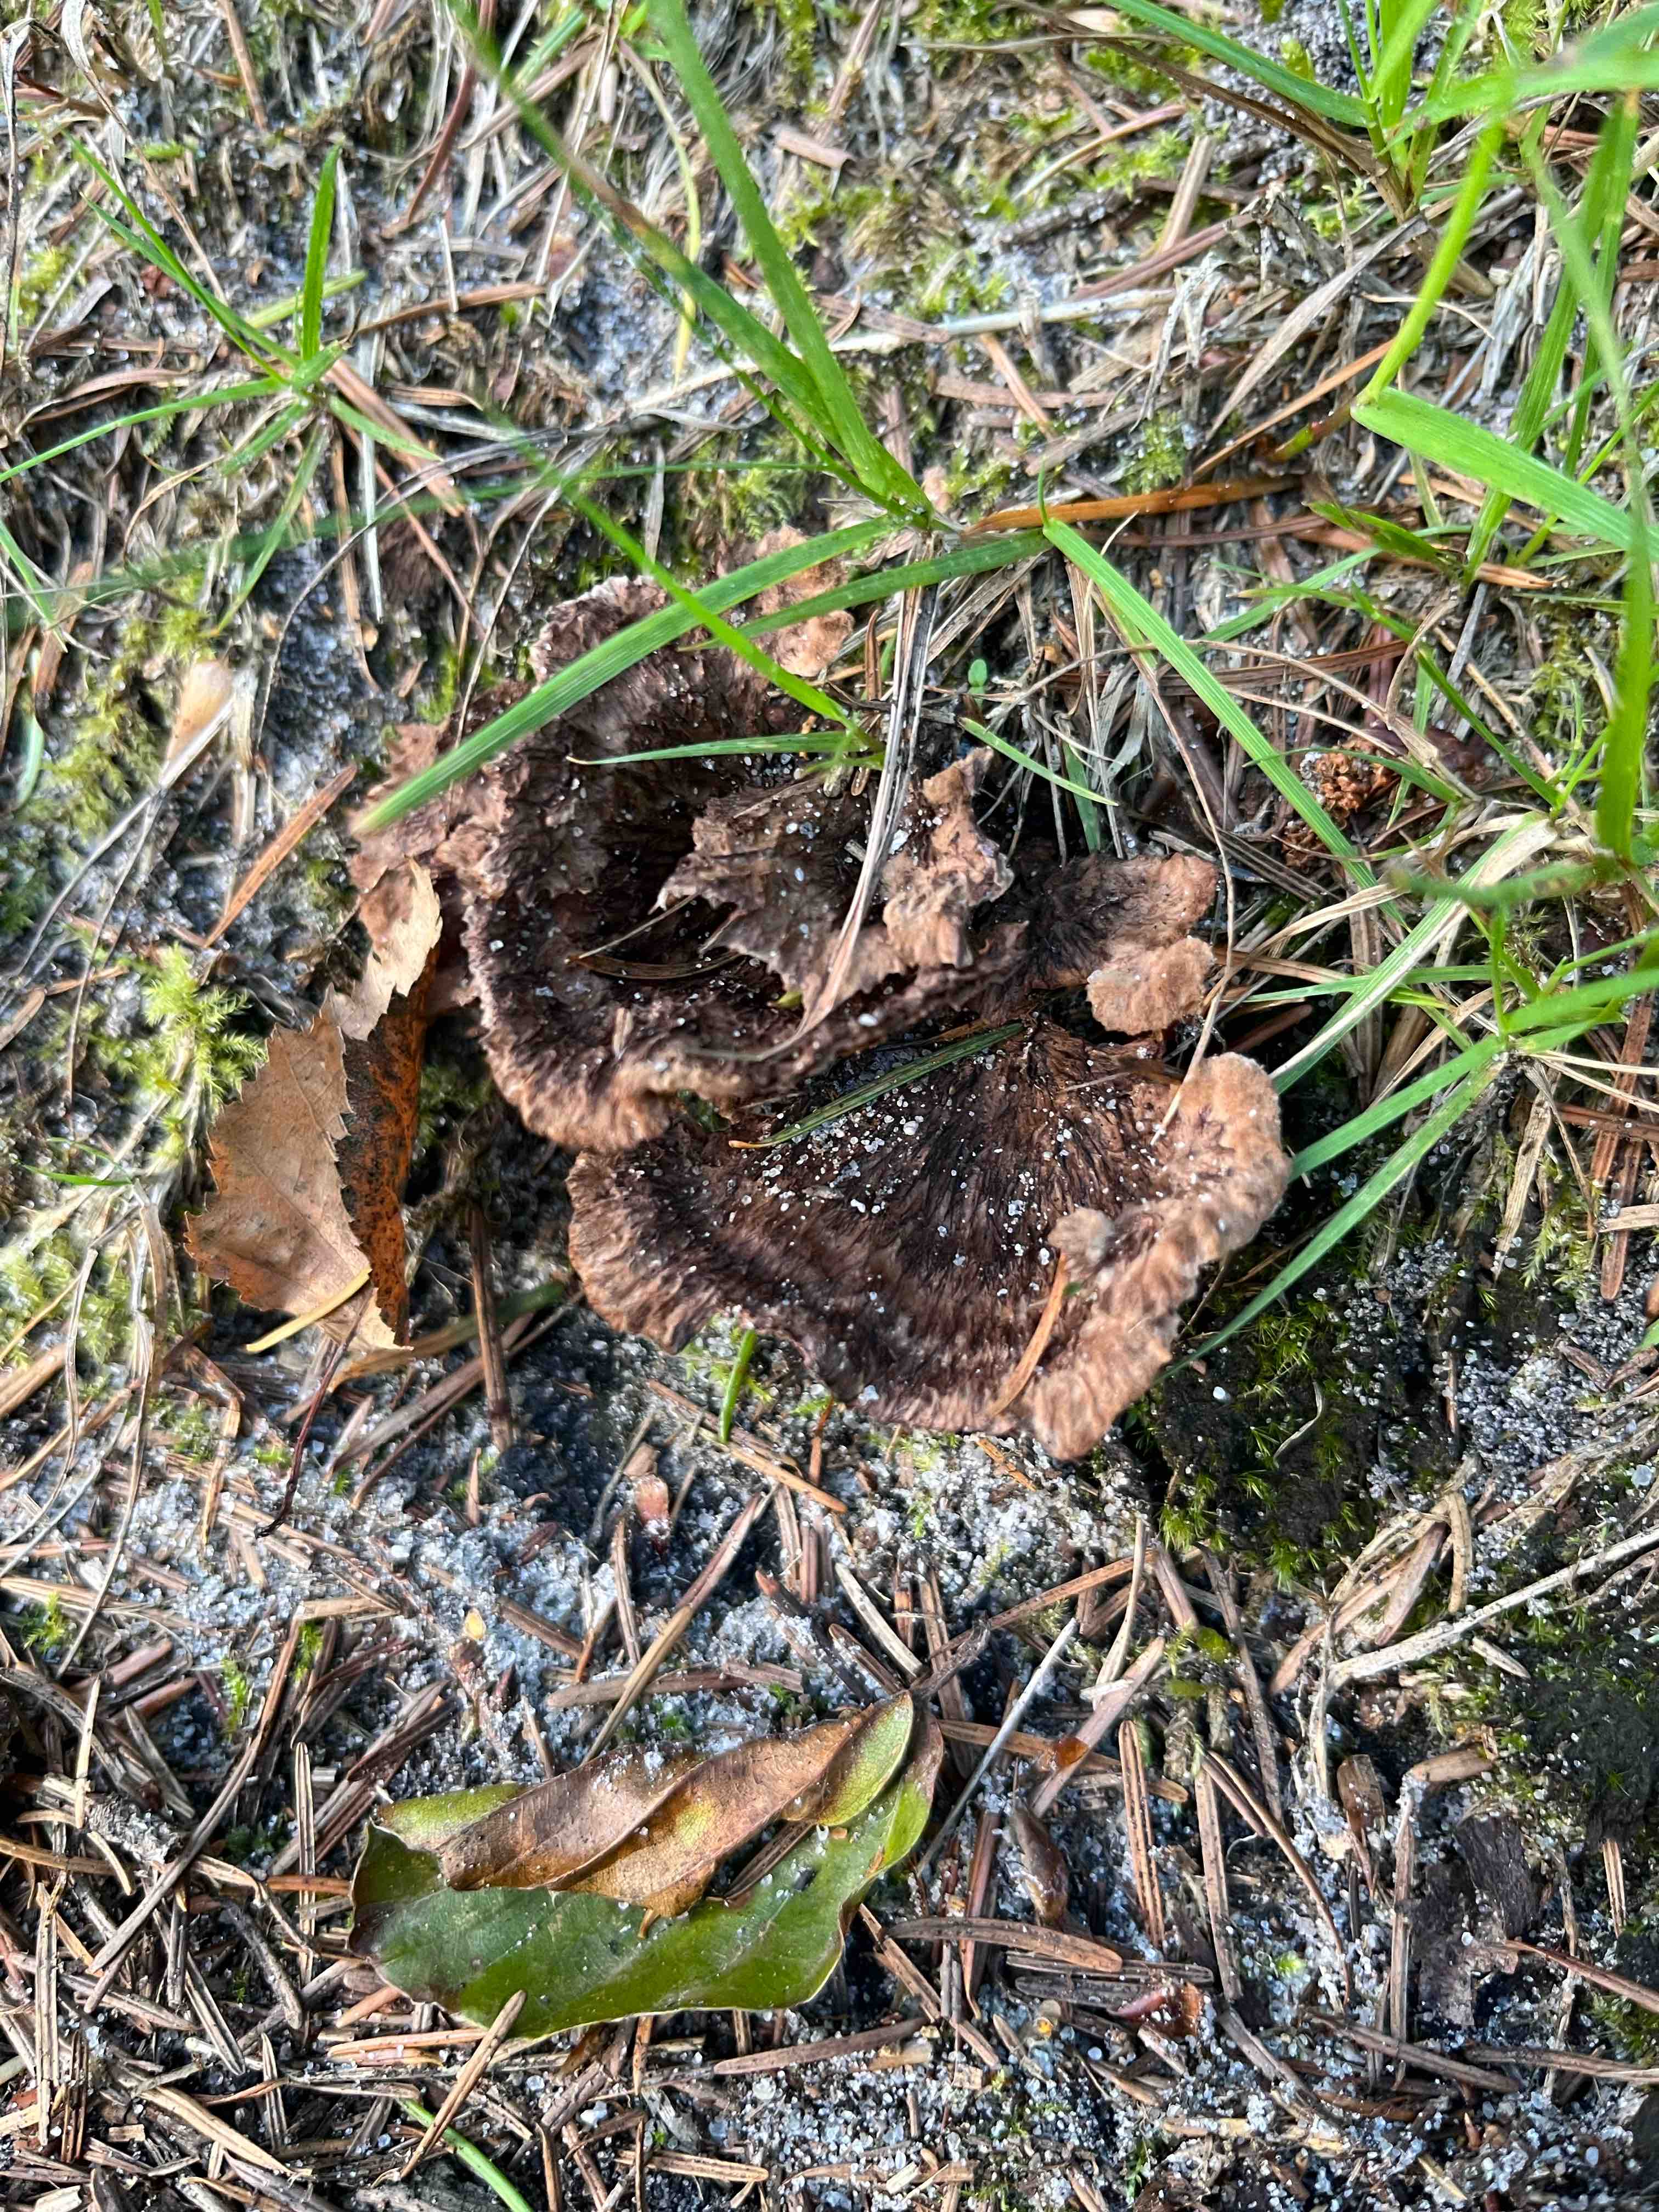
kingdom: Fungi
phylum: Basidiomycota
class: Agaricomycetes
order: Thelephorales
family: Thelephoraceae
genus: Thelephora
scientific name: Thelephora terrestris
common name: fliget frynsesvamp
